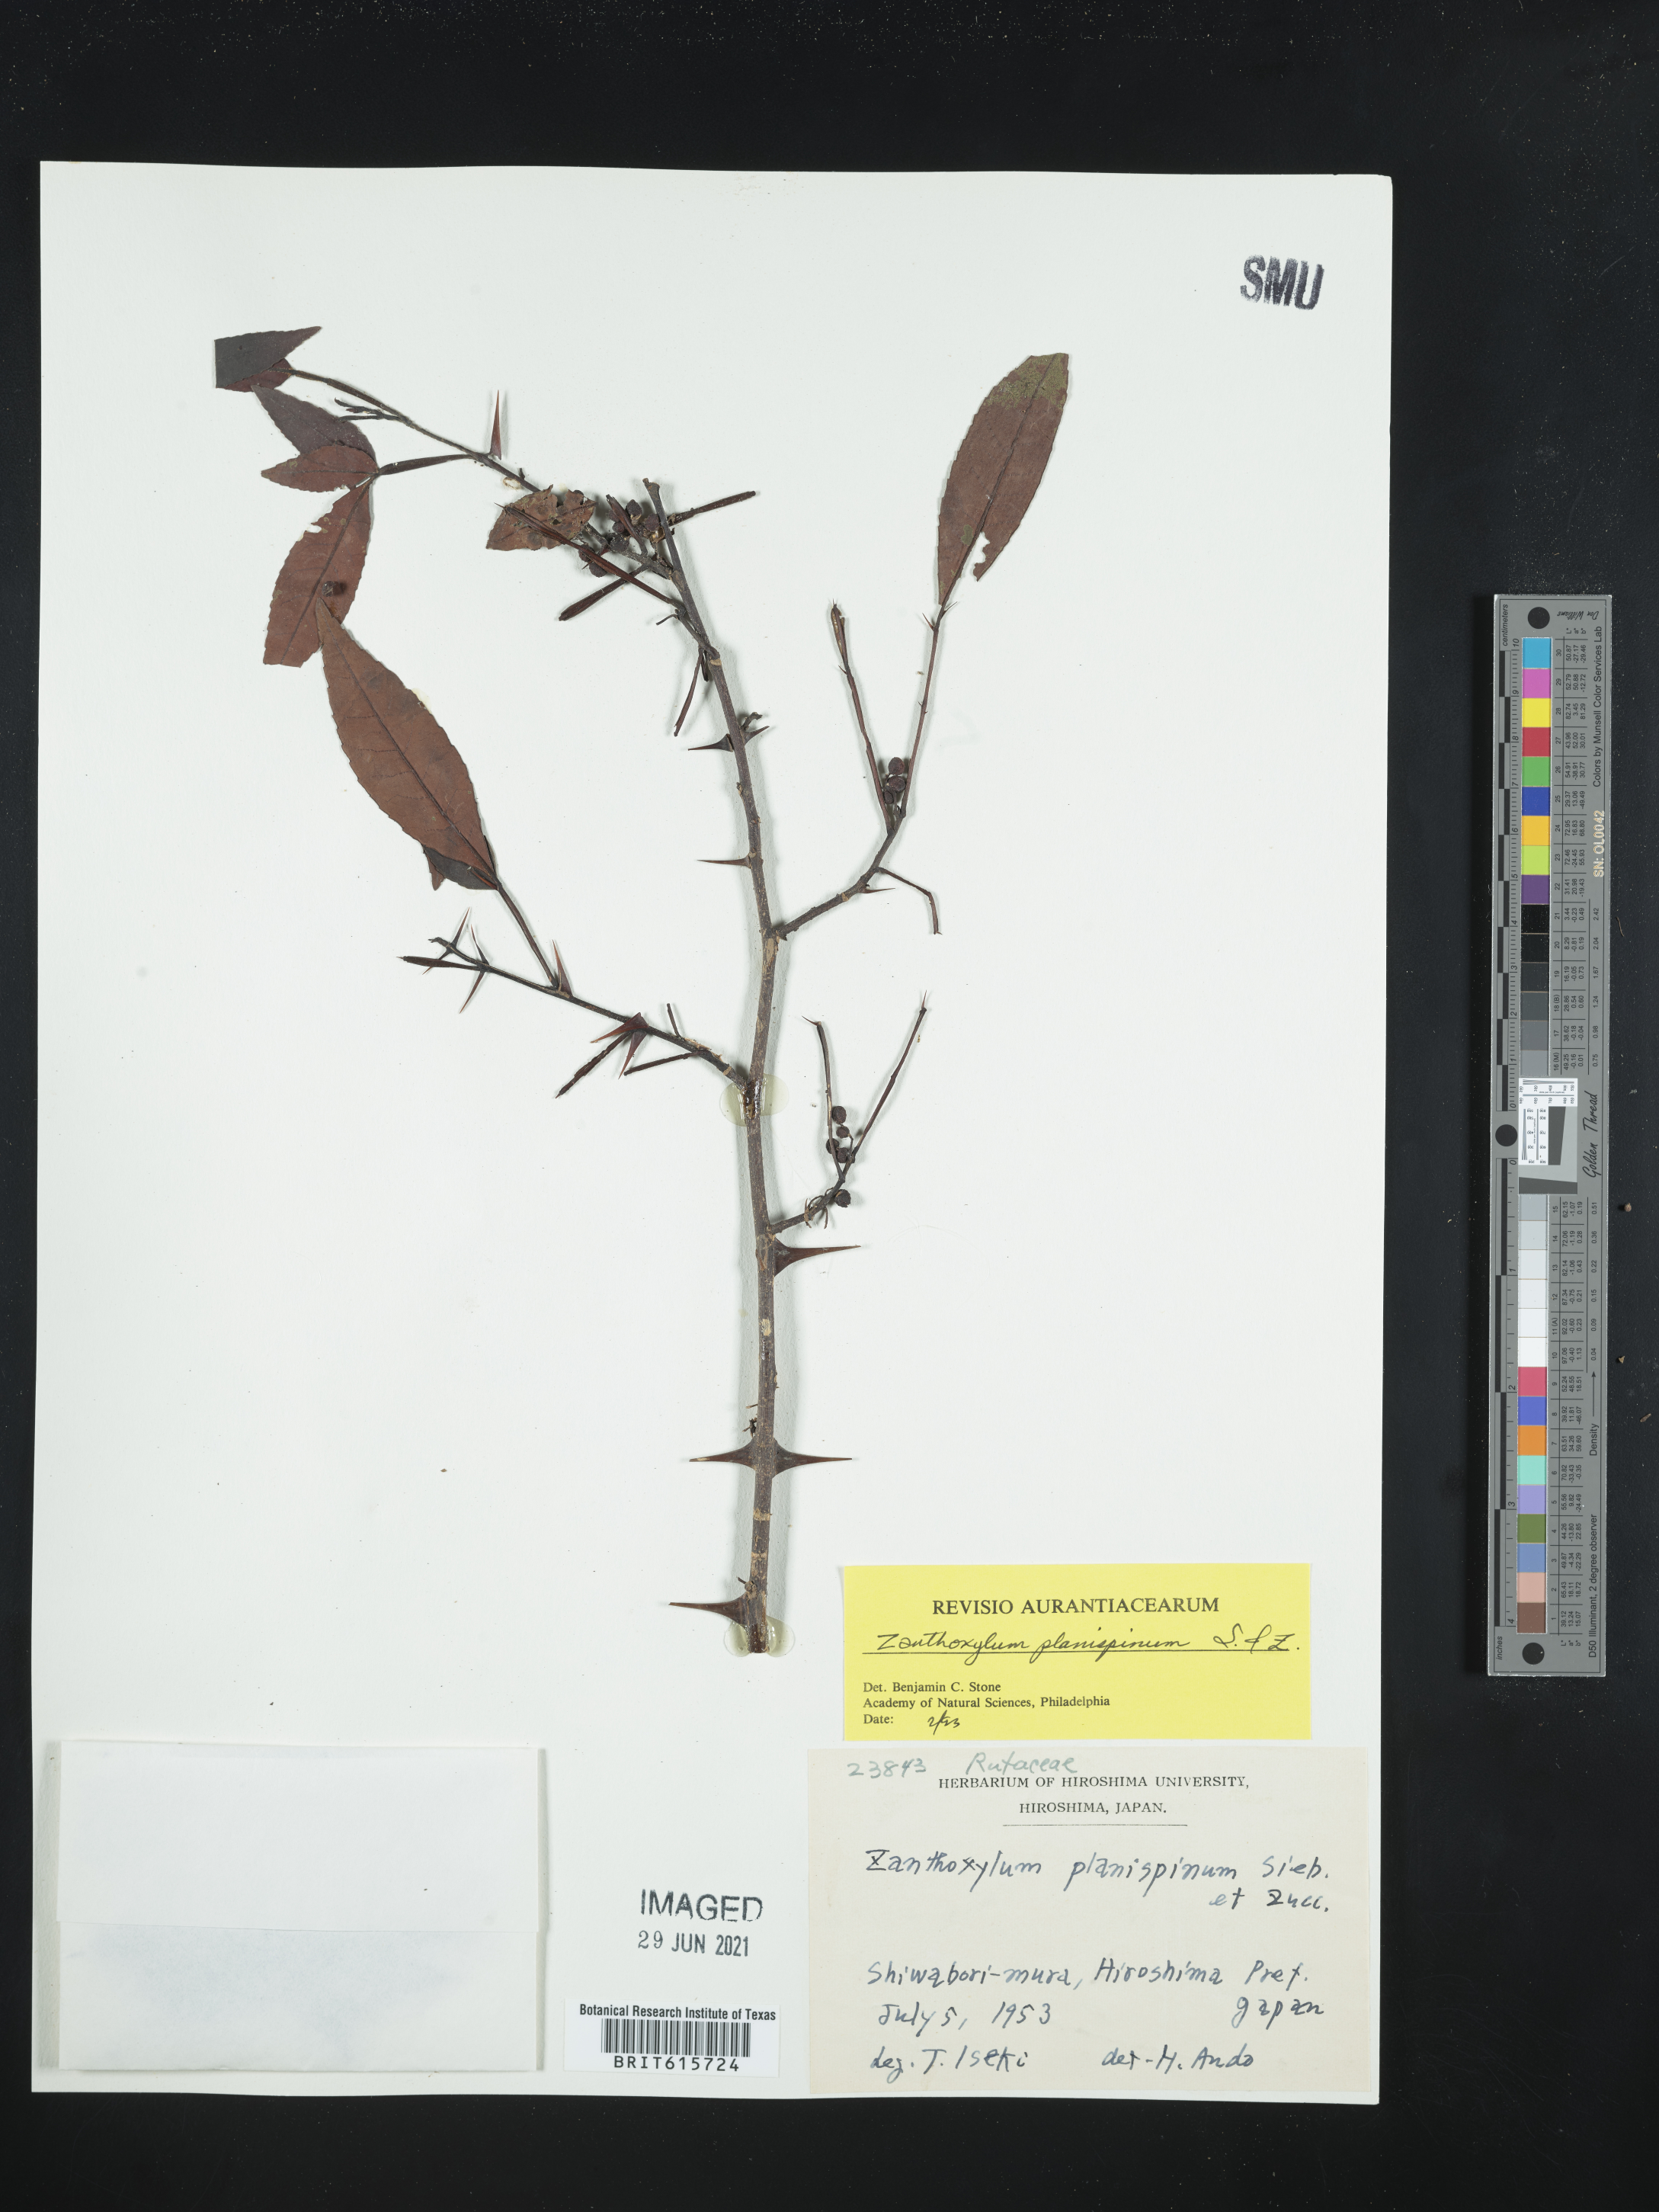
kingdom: Plantae
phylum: Tracheophyta
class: Magnoliopsida
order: Sapindales
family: Rutaceae
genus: Zanthoxylum
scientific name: Zanthoxylum armatum
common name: Winged prickly-ash
